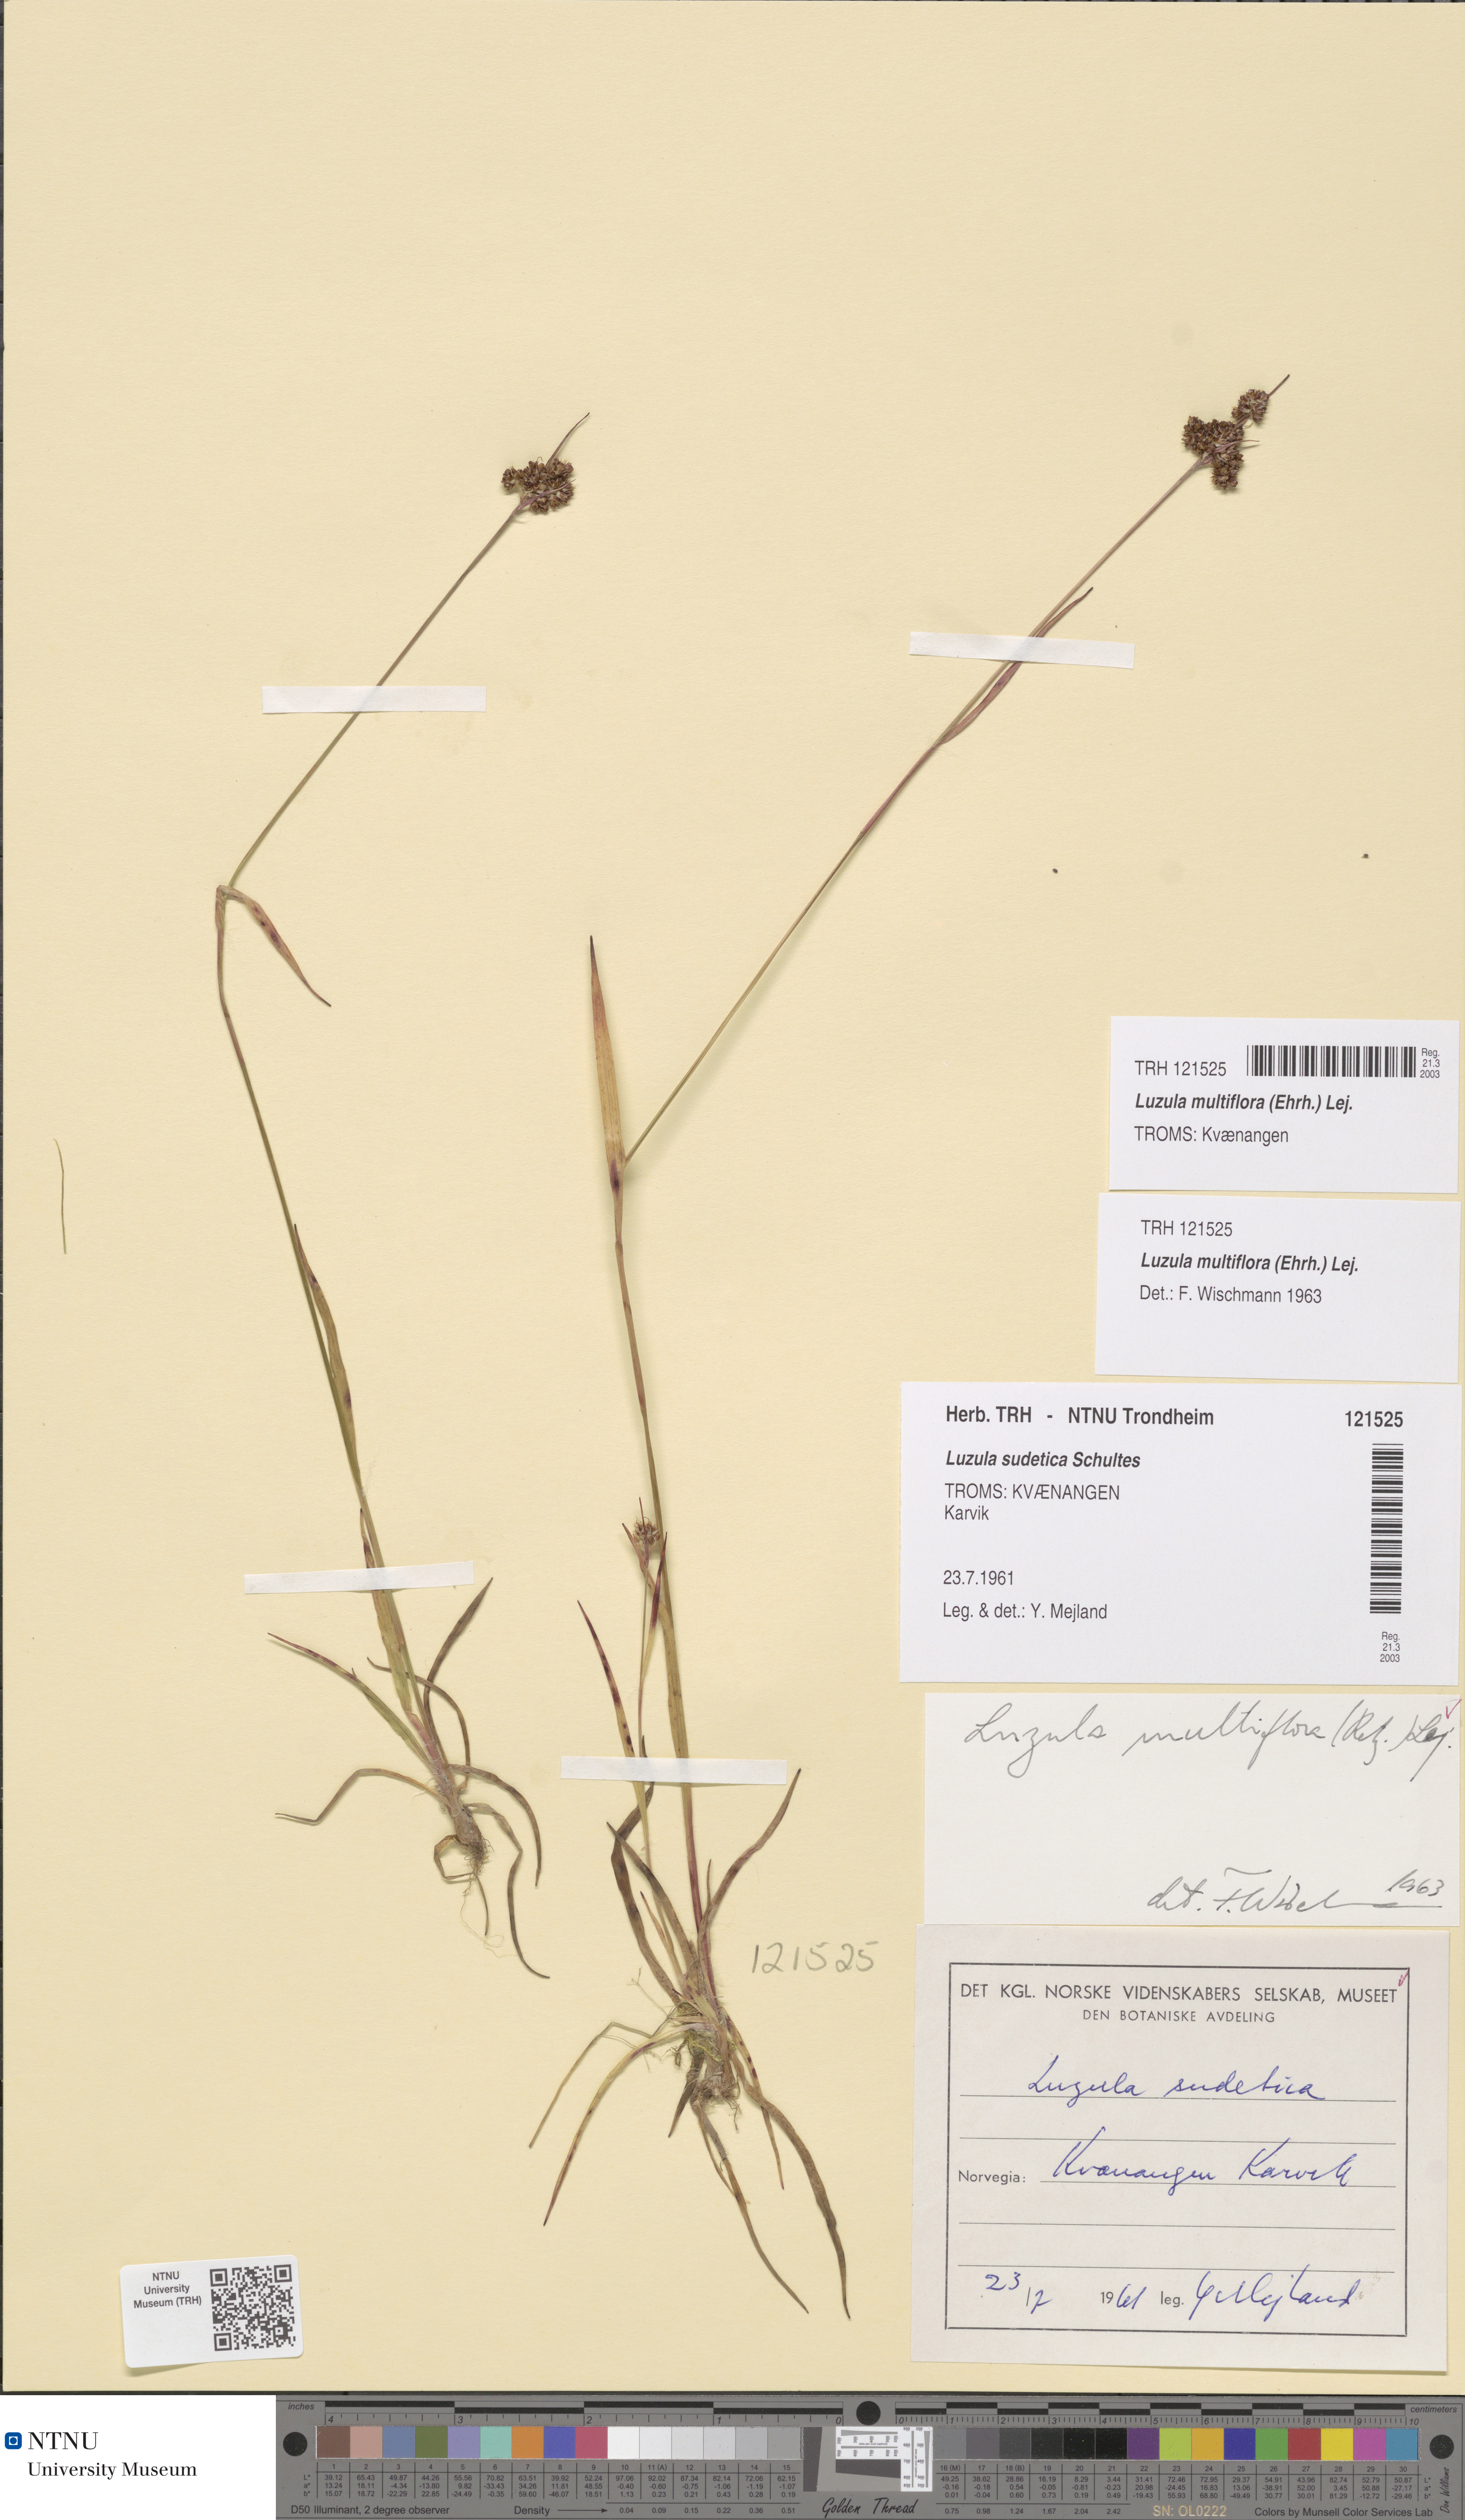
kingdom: Plantae
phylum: Tracheophyta
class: Liliopsida
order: Poales
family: Juncaceae
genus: Luzula
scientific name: Luzula multiflora
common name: Heath wood-rush
